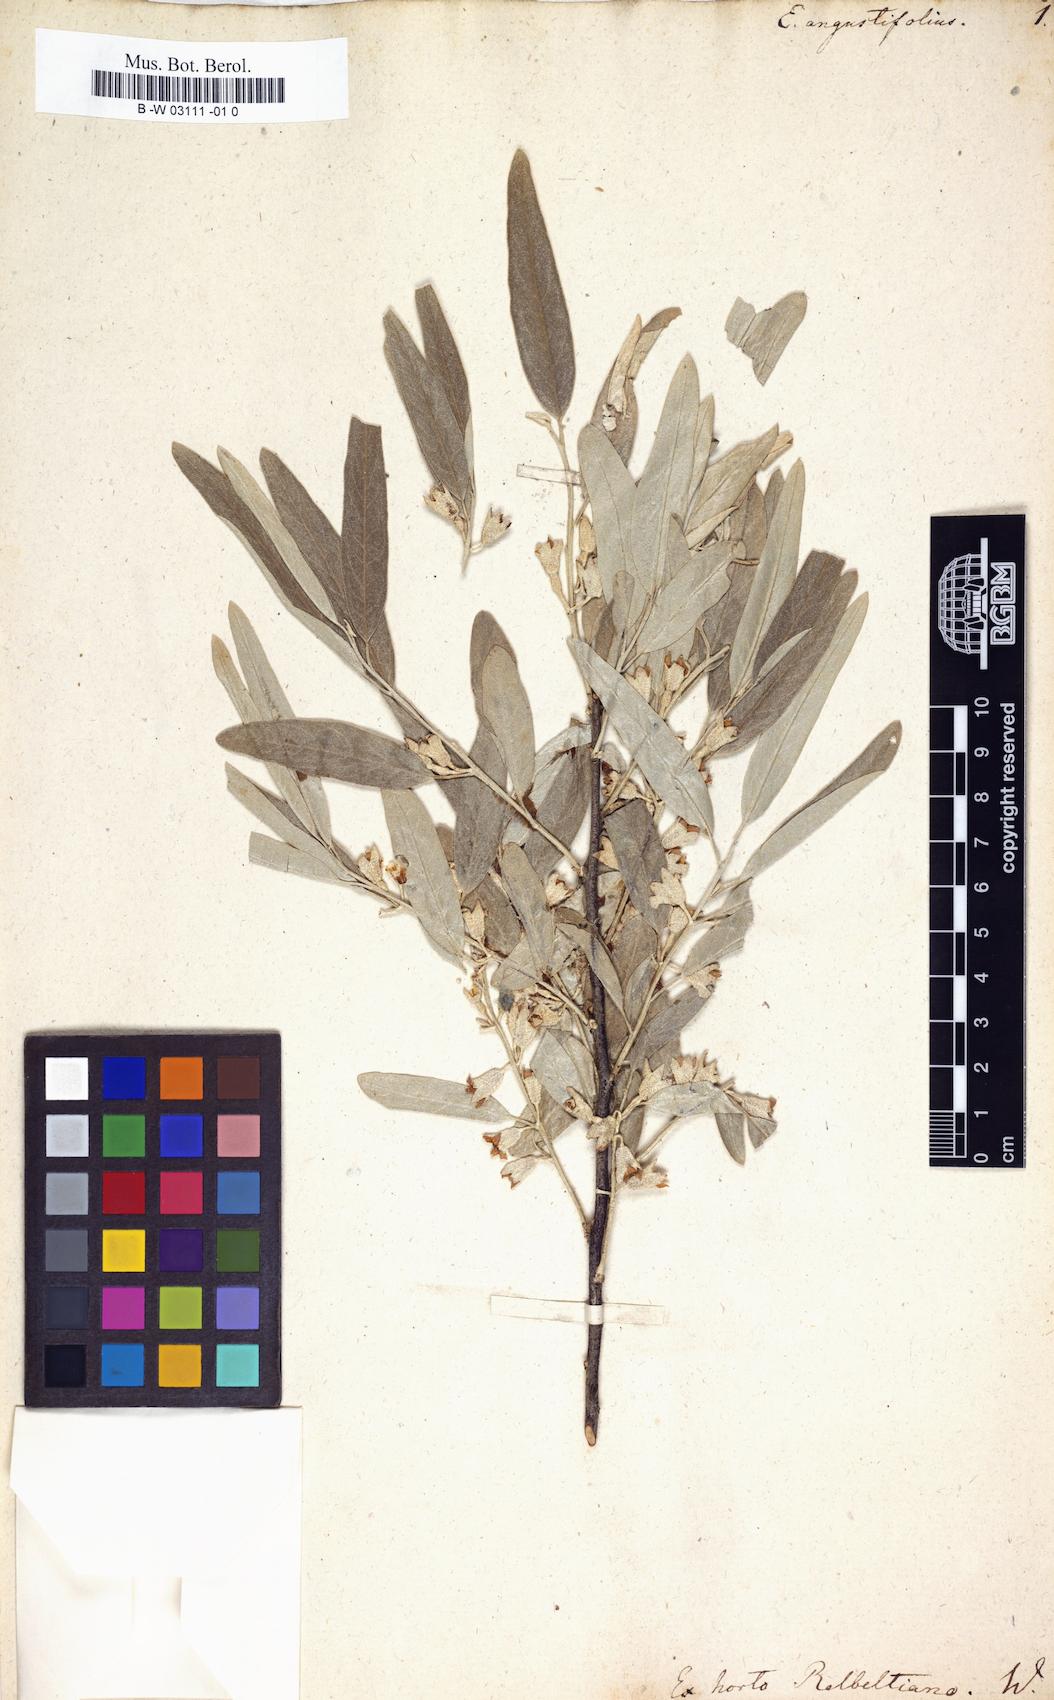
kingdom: Plantae
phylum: Tracheophyta
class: Magnoliopsida
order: Rosales
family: Elaeagnaceae
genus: Elaeagnus
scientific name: Elaeagnus angustifolia
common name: Russian olive
